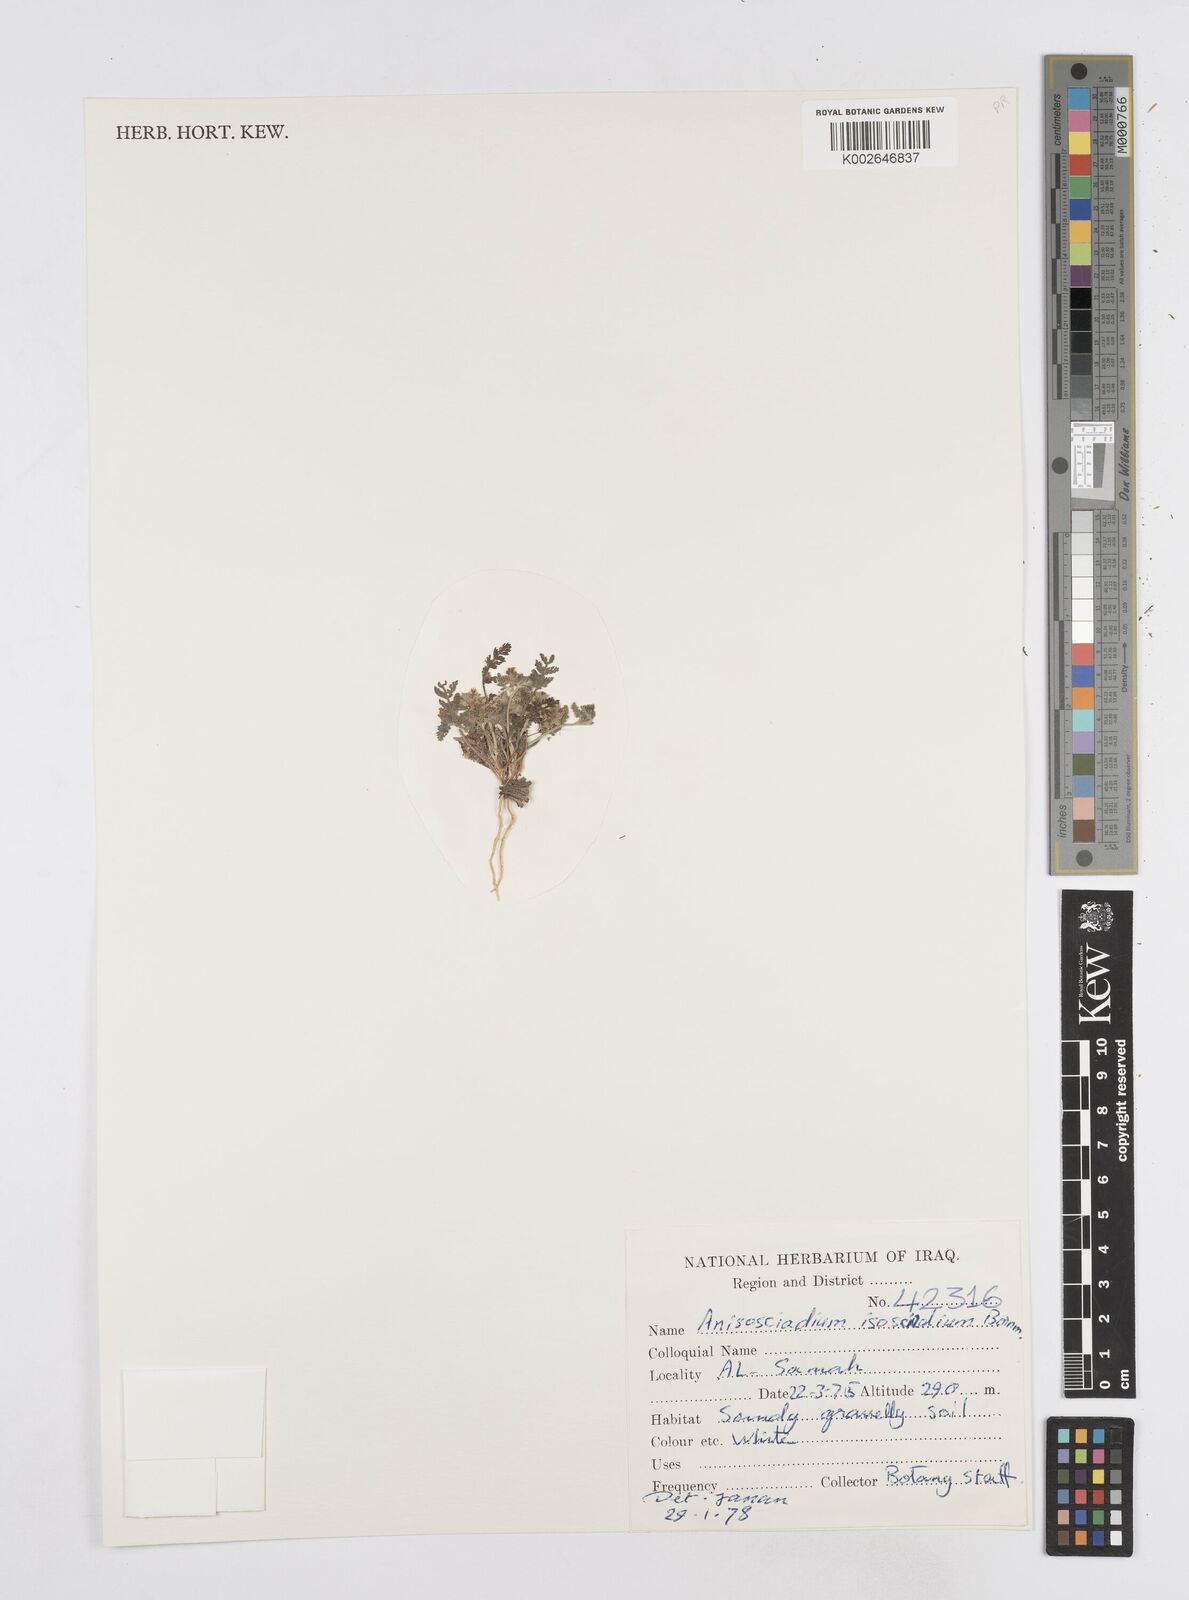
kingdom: Plantae
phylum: Tracheophyta
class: Magnoliopsida
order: Apiales
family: Apiaceae
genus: Anisosciadium
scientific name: Anisosciadium isosciadium
